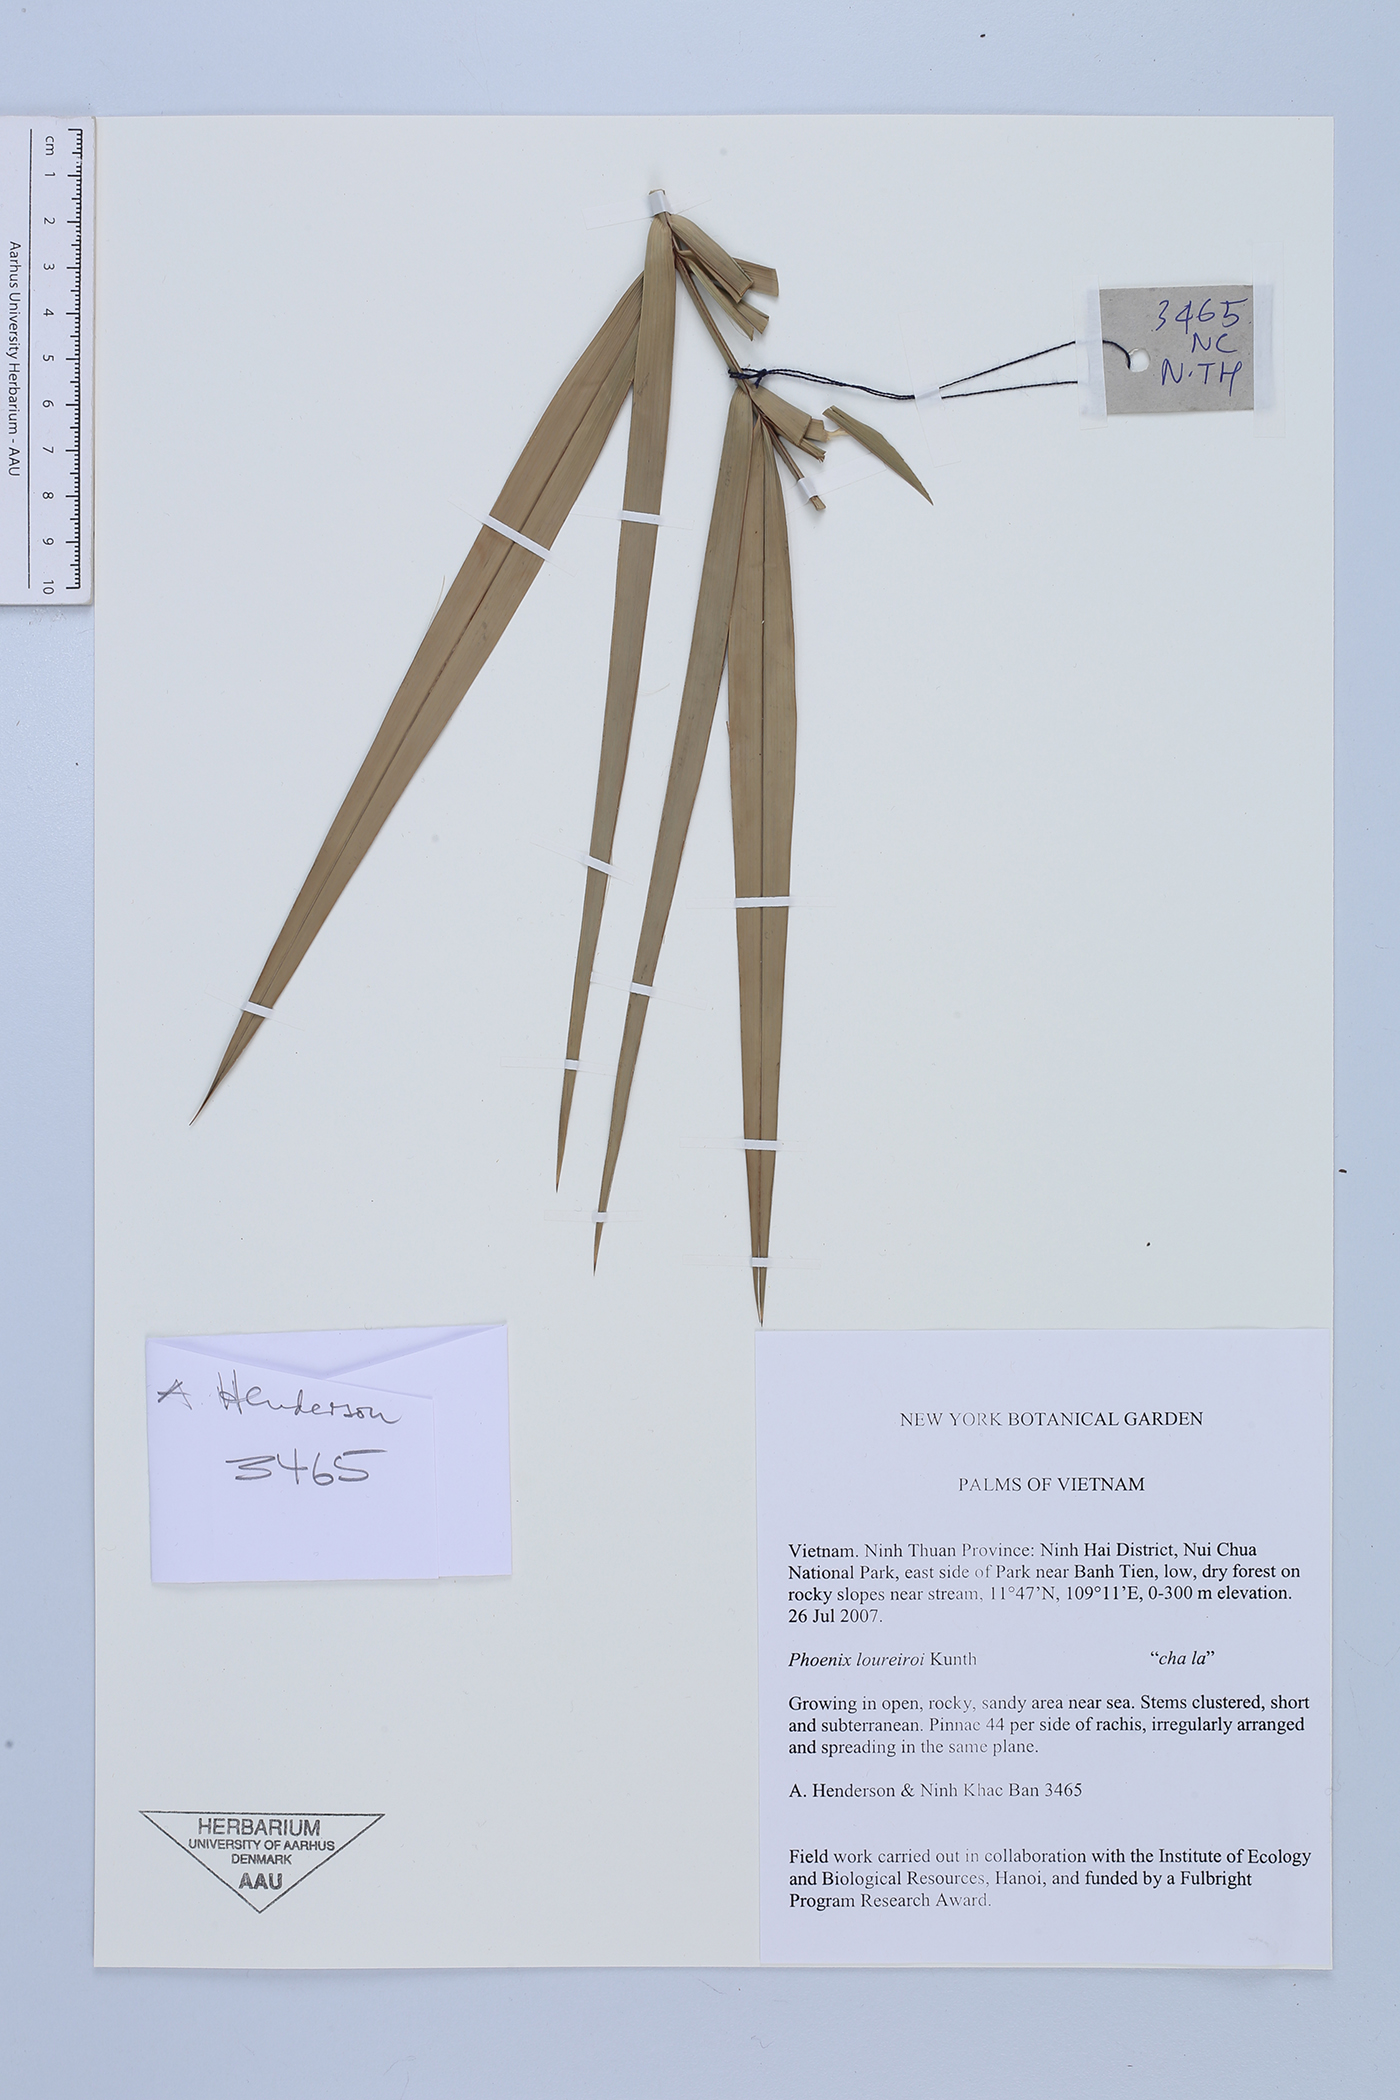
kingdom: Plantae
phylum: Tracheophyta
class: Liliopsida
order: Arecales
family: Arecaceae
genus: Phoenix
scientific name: Phoenix loureiroi
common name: Loureiro's palm
